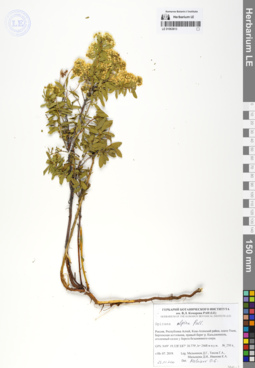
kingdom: Plantae
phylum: Tracheophyta
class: Magnoliopsida
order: Rosales
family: Rosaceae
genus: Spiraea
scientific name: Spiraea alpina
